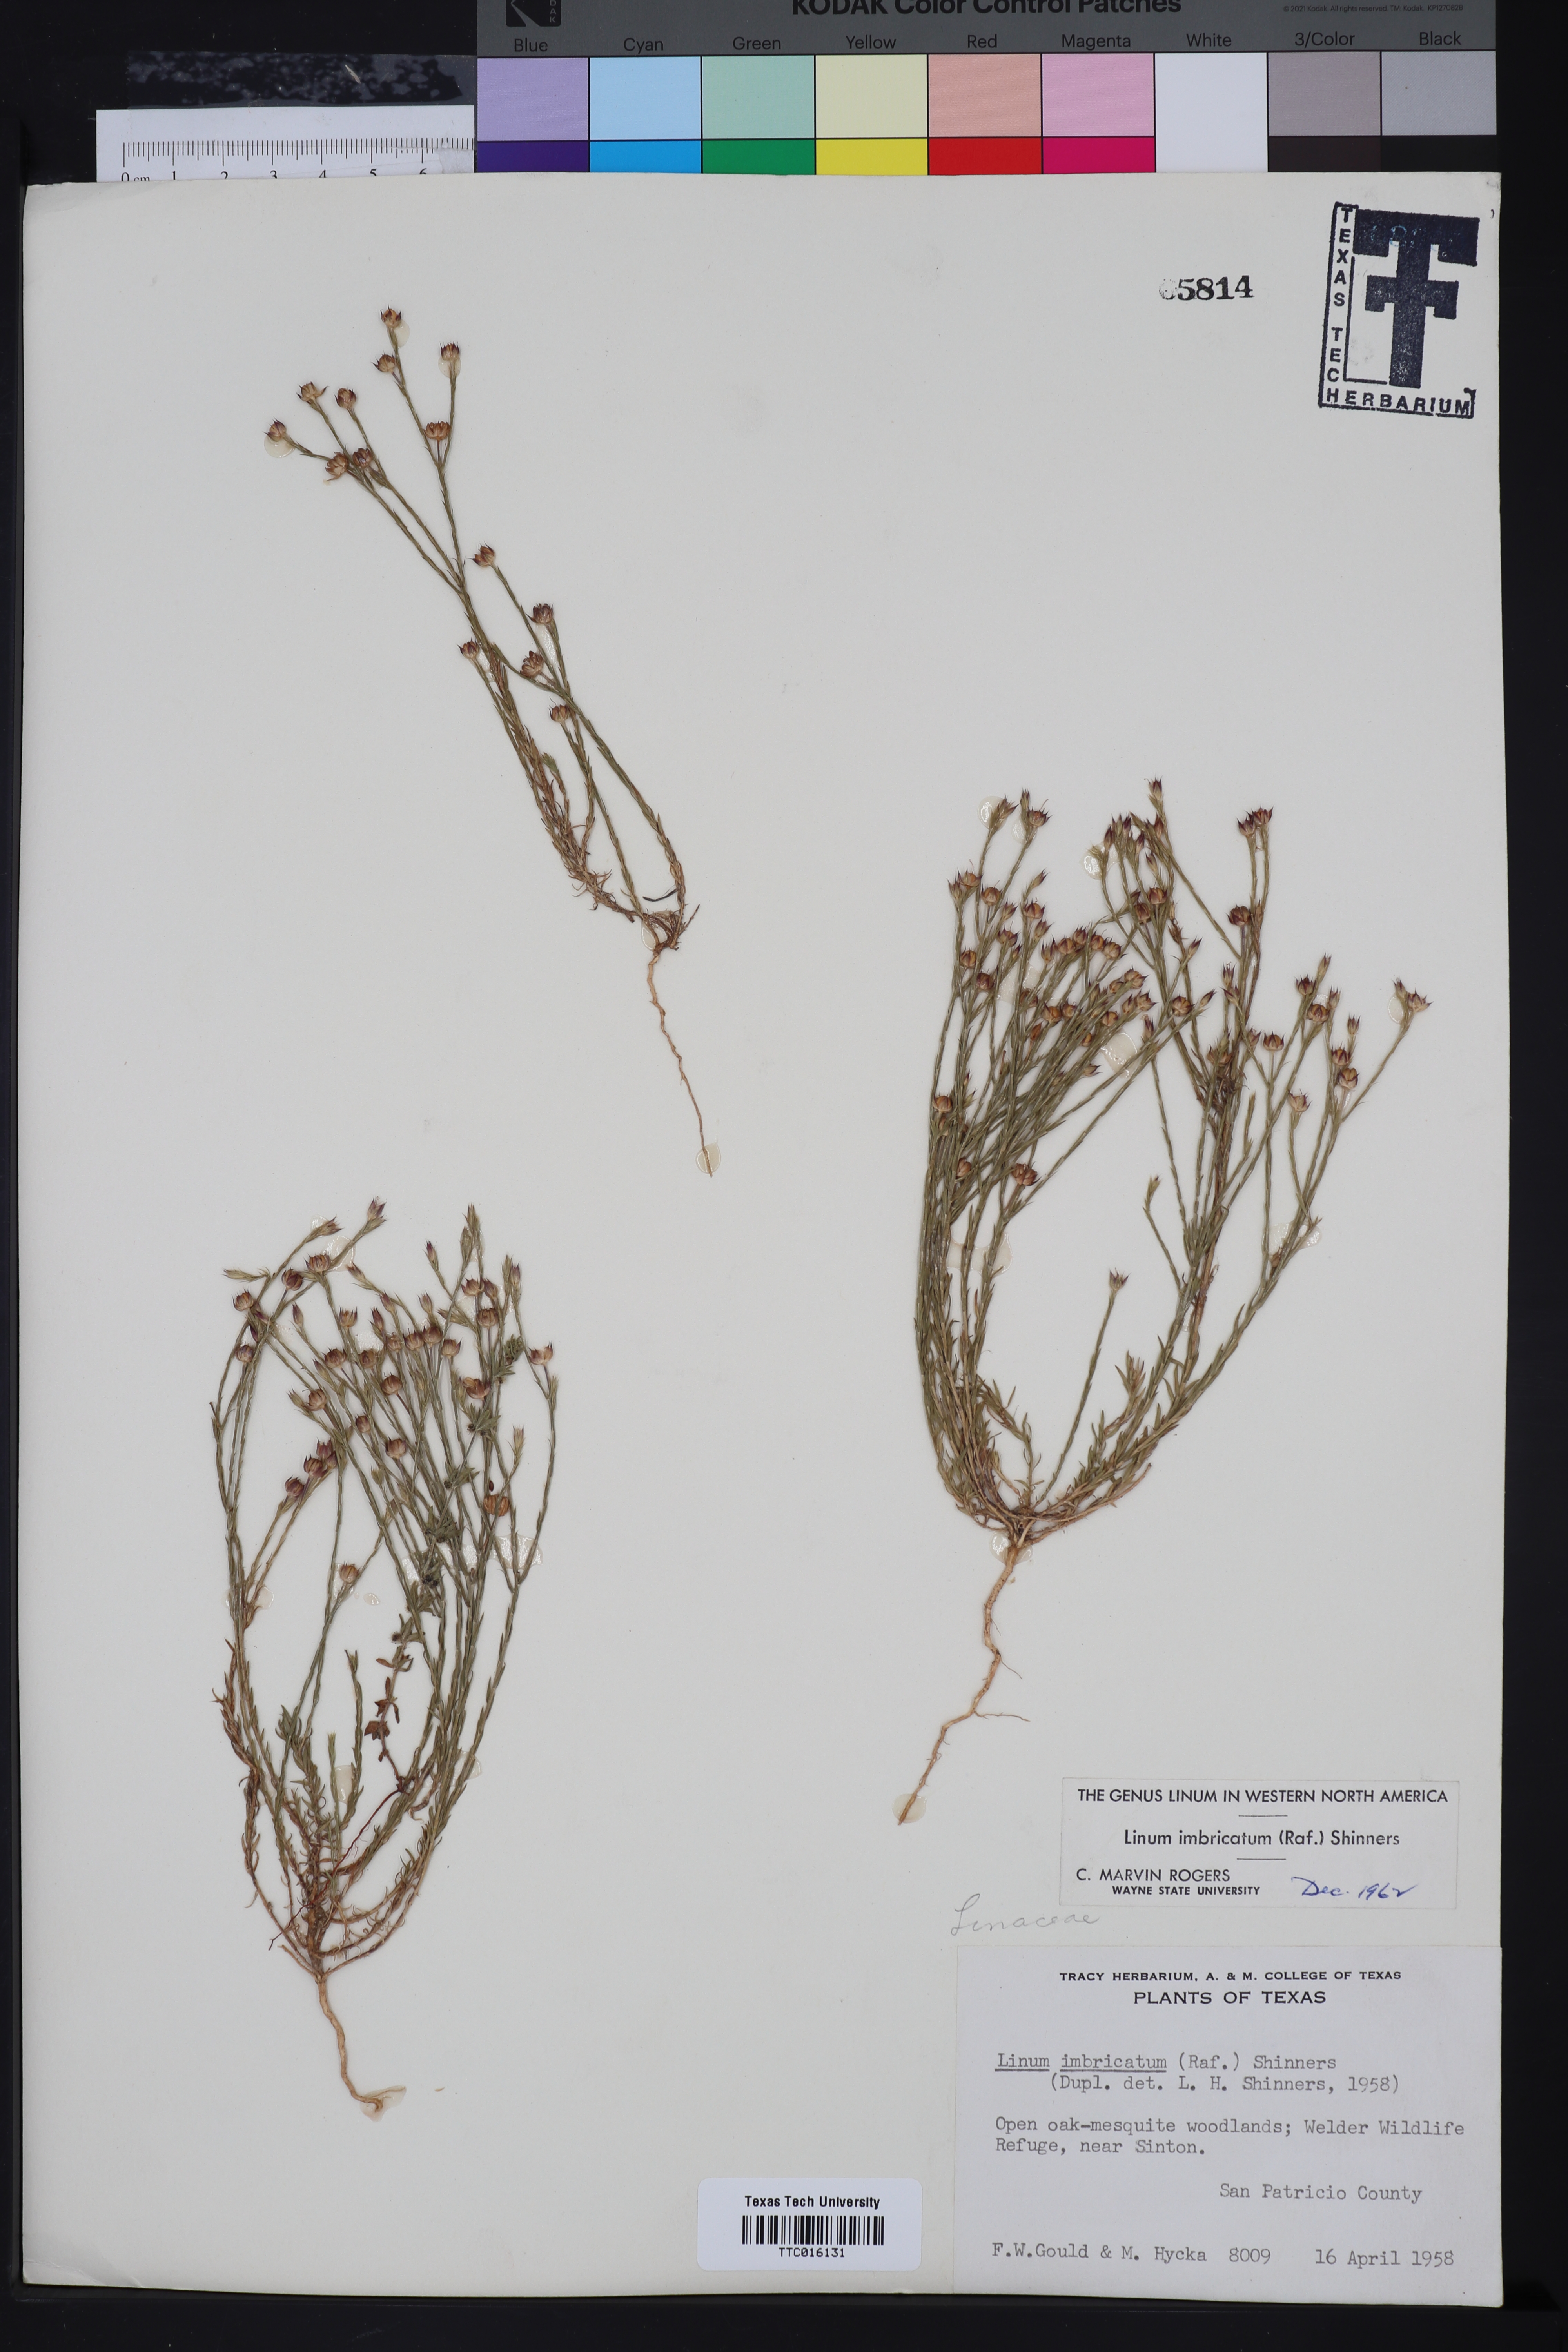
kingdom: Plantae
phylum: Tracheophyta
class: Magnoliopsida
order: Malpighiales
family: Linaceae
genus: Linum
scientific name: Linum imbricatum
